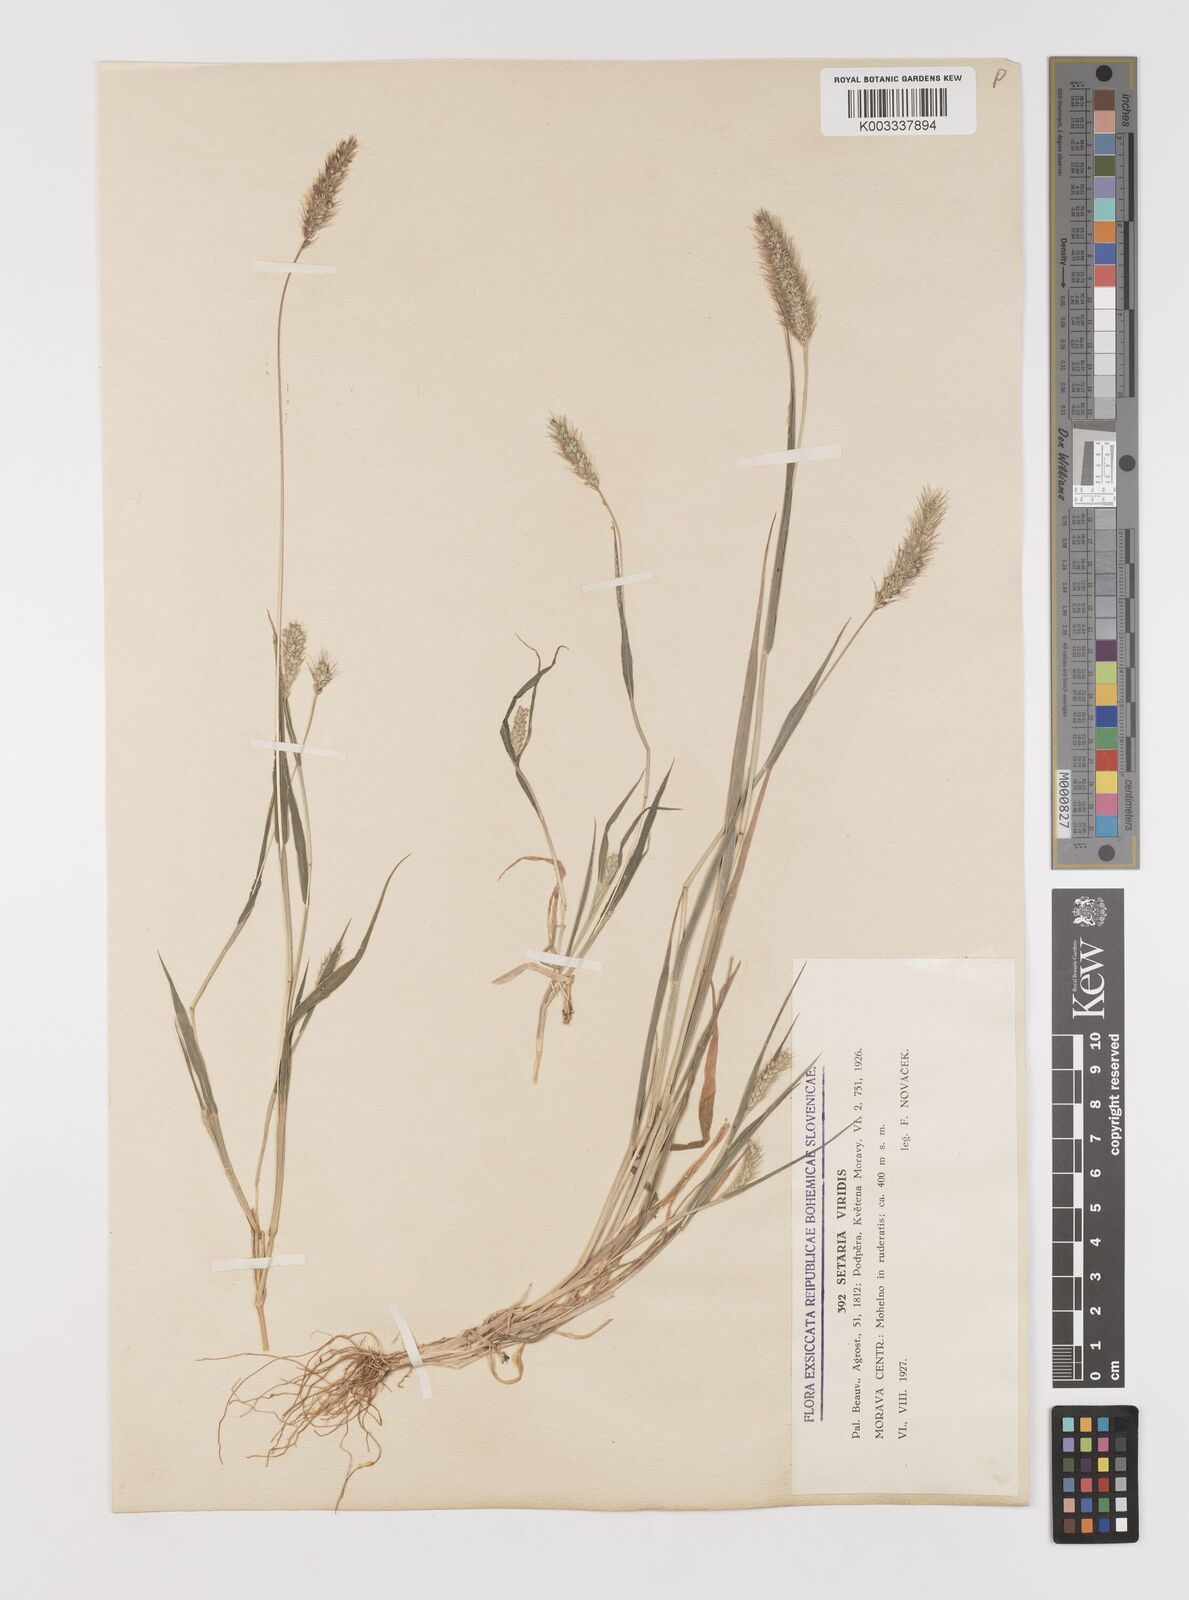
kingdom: Plantae
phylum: Tracheophyta
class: Liliopsida
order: Poales
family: Poaceae
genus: Setaria
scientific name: Setaria viridis
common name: Green bristlegrass
